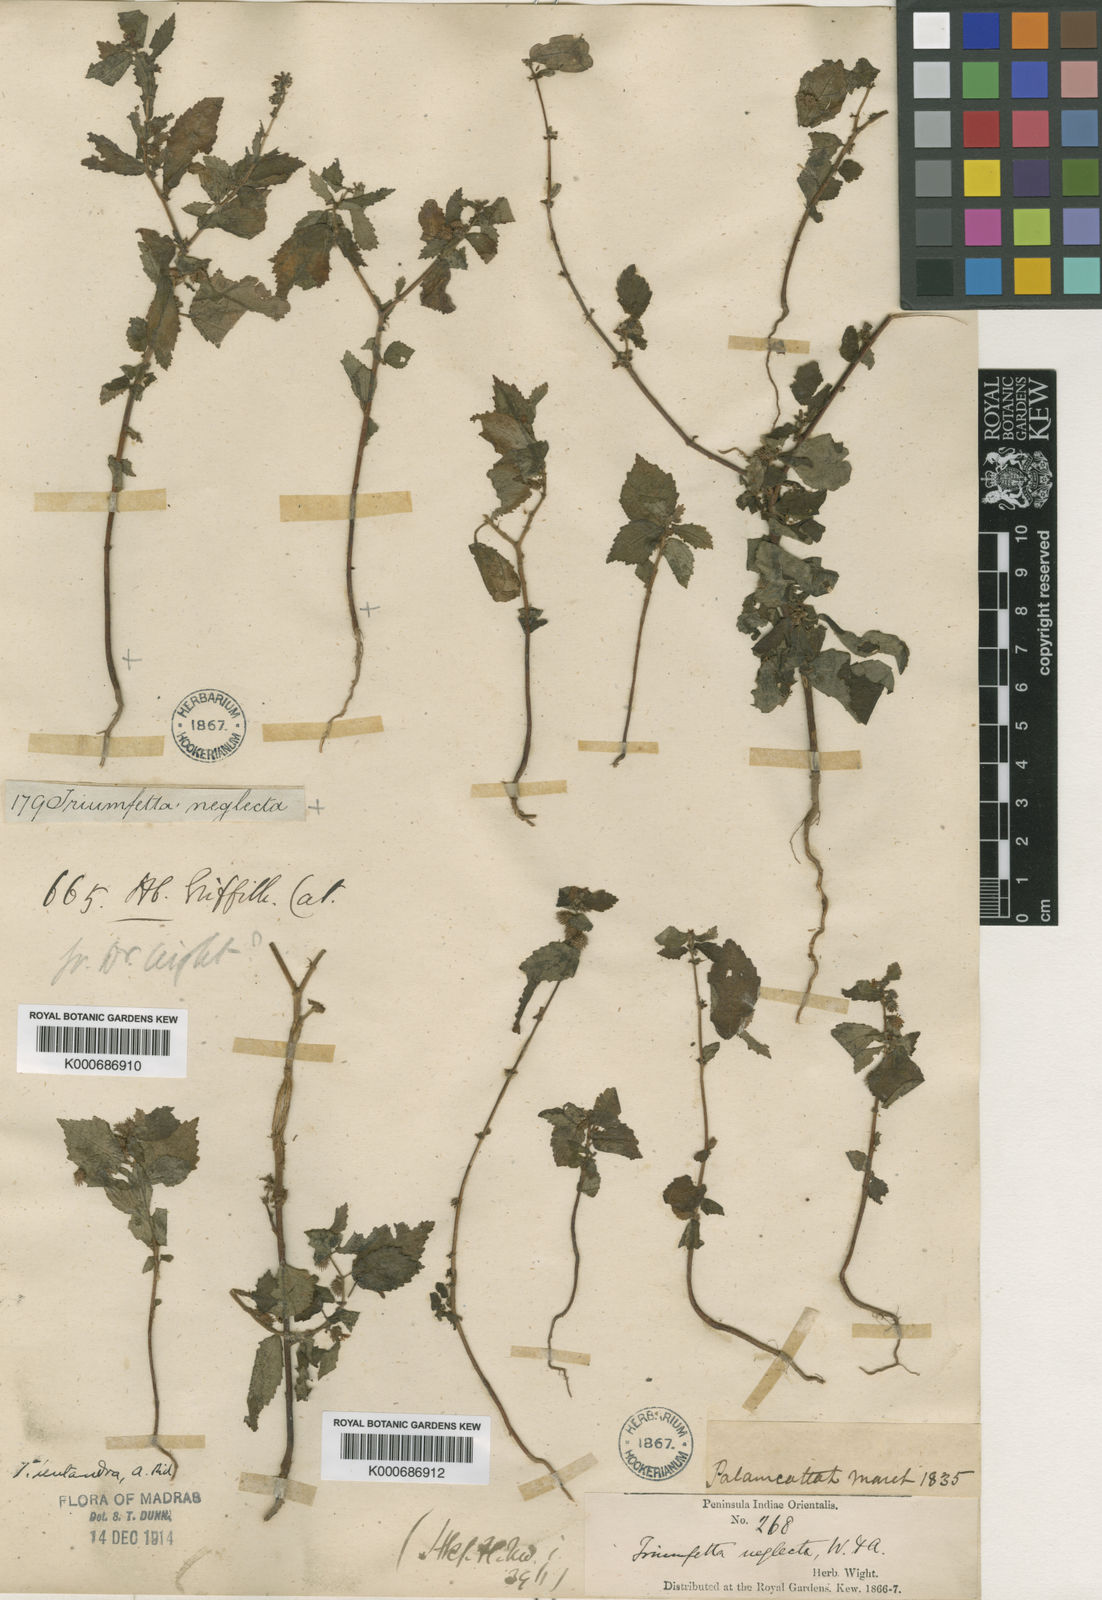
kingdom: Plantae
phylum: Tracheophyta
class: Magnoliopsida
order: Malvales
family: Malvaceae
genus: Triumfetta
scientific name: Triumfetta pentandra
